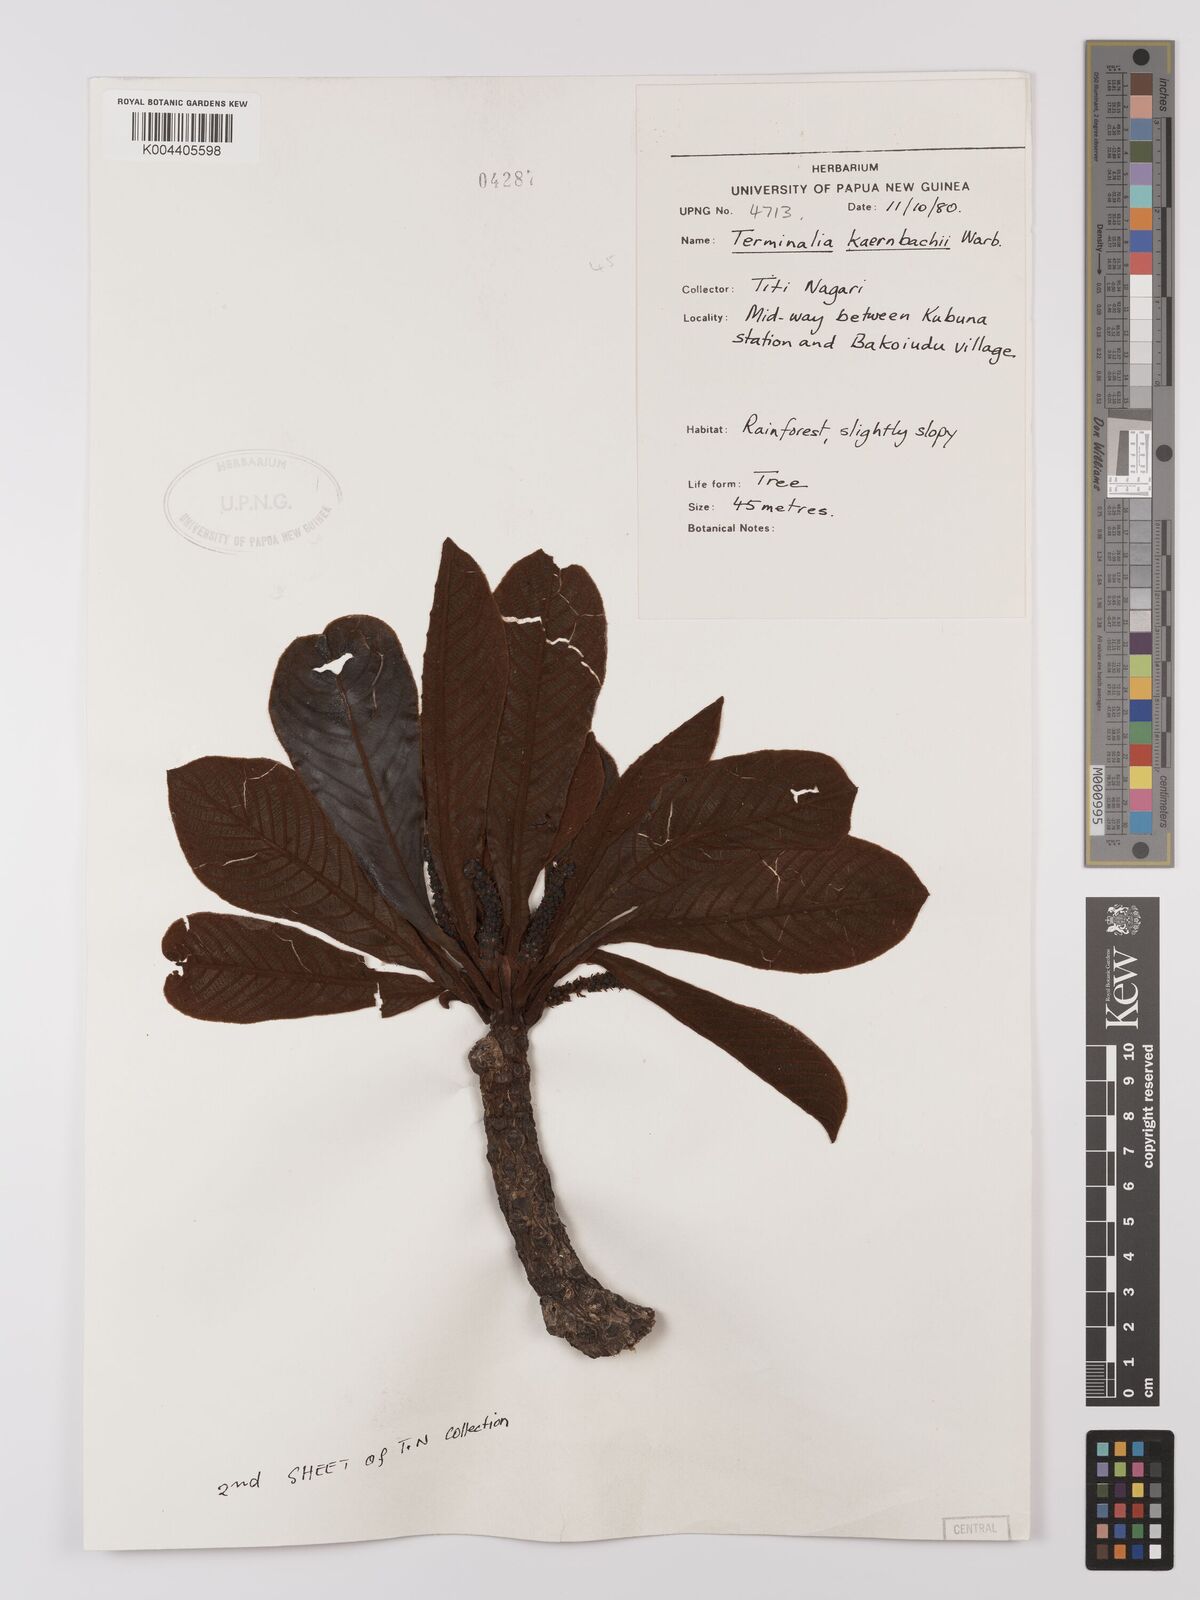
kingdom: Plantae
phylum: Tracheophyta
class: Magnoliopsida
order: Myrtales
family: Combretaceae
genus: Terminalia
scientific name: Terminalia kaernbachii
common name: Okari-nut
